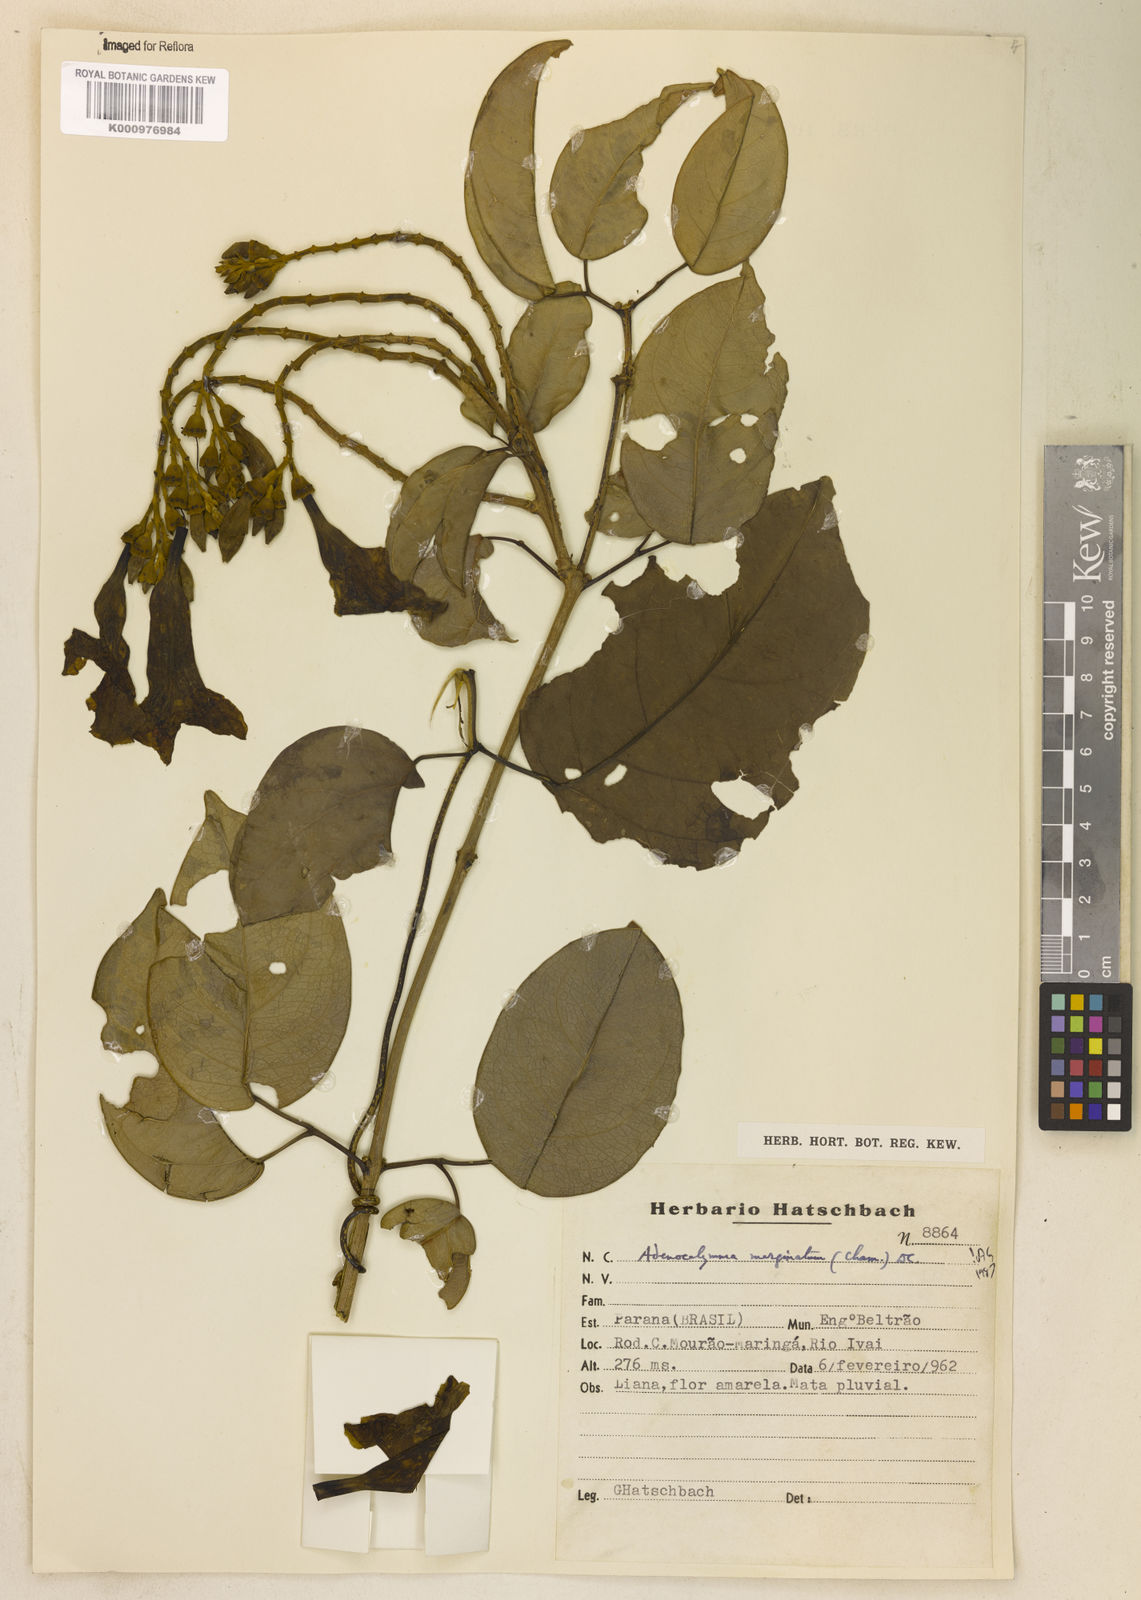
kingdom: Plantae
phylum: Tracheophyta
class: Magnoliopsida
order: Lamiales
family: Bignoniaceae
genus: Adenocalymma
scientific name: Adenocalymma marginatum
